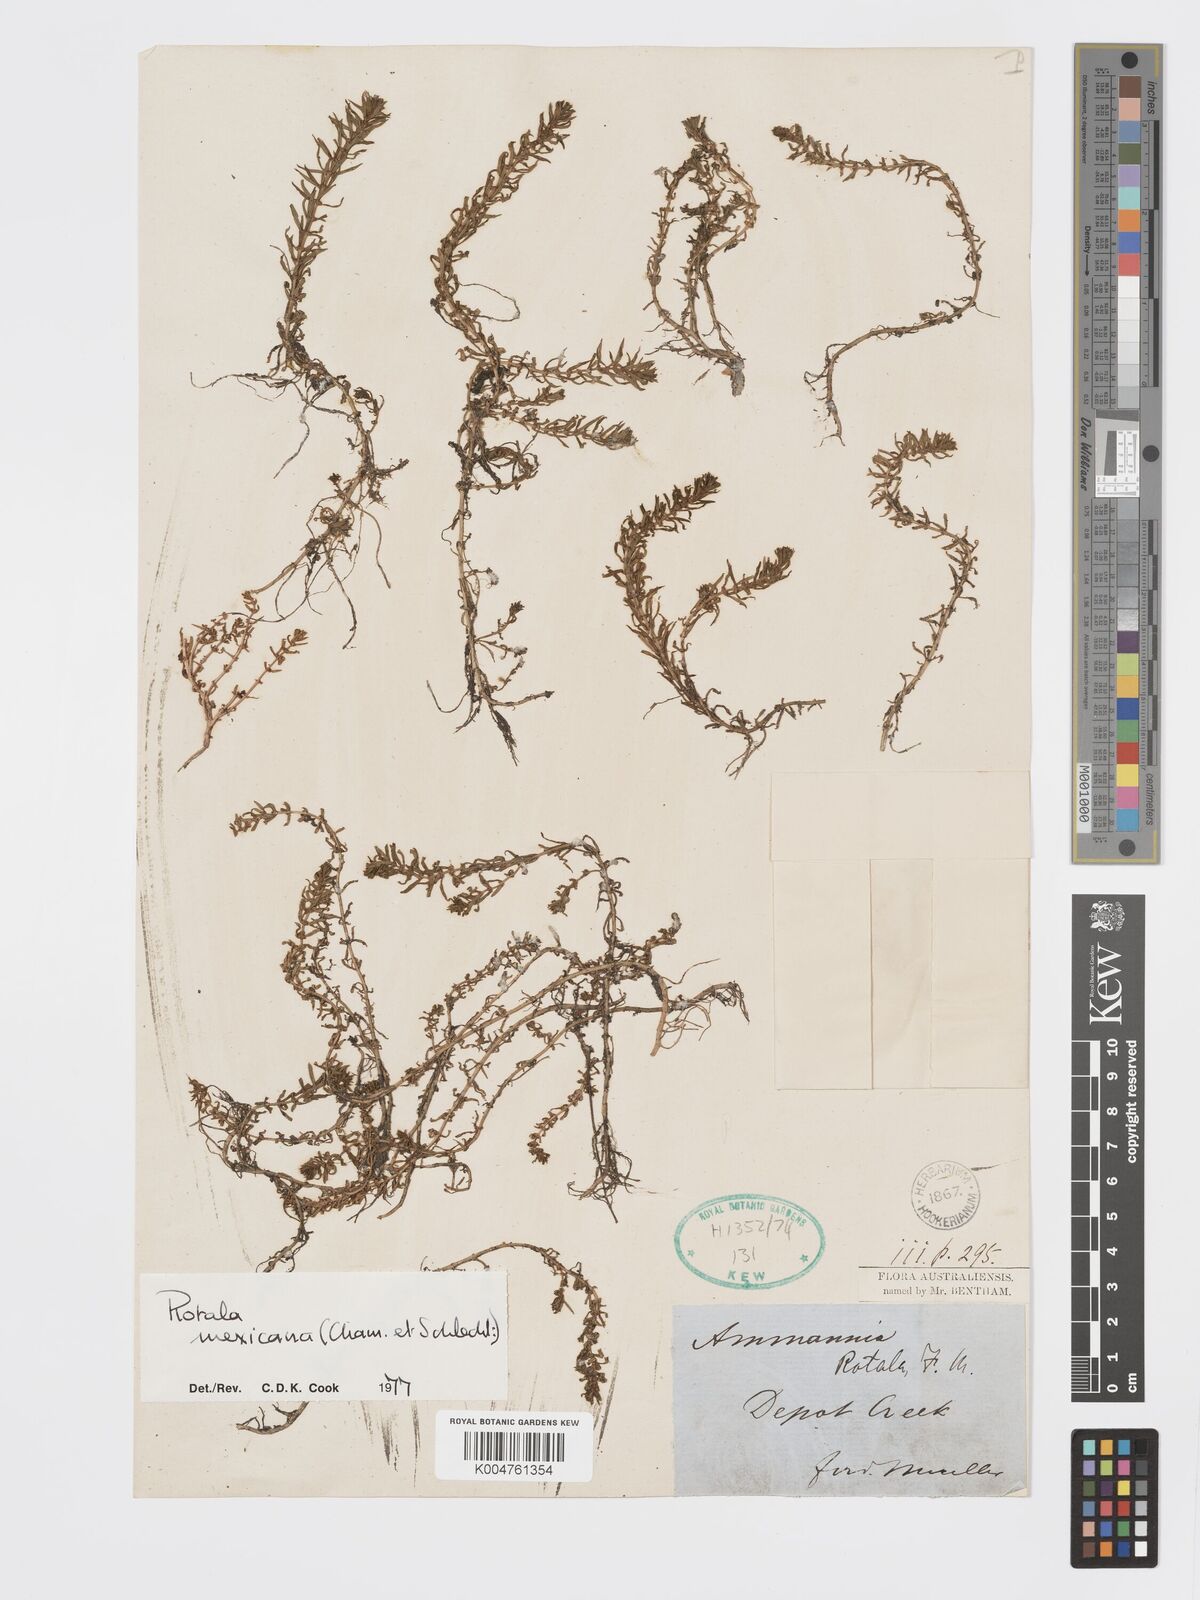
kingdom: Plantae
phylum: Tracheophyta
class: Magnoliopsida
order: Myrtales
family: Lythraceae
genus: Rotala
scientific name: Rotala mexicana
